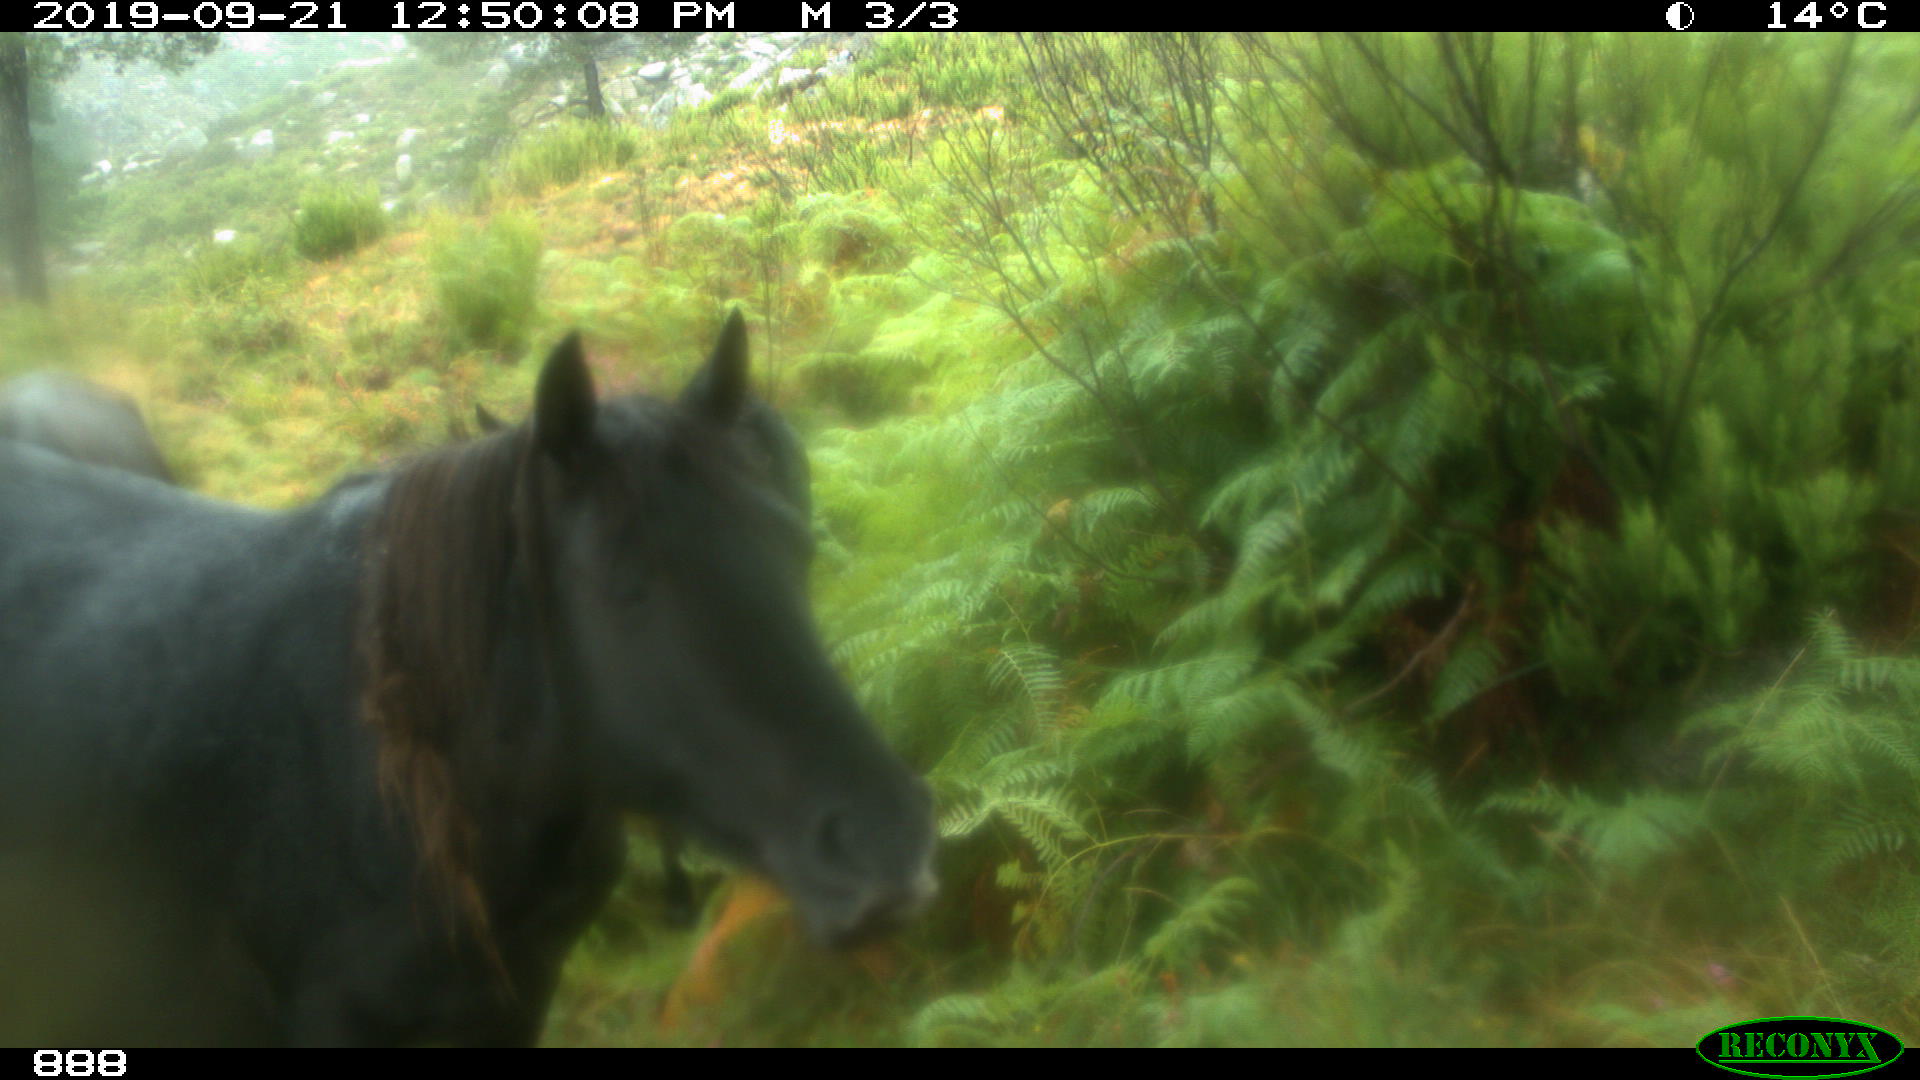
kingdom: Animalia
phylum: Chordata
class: Mammalia
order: Perissodactyla
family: Equidae
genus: Equus
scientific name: Equus caballus
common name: Horse
